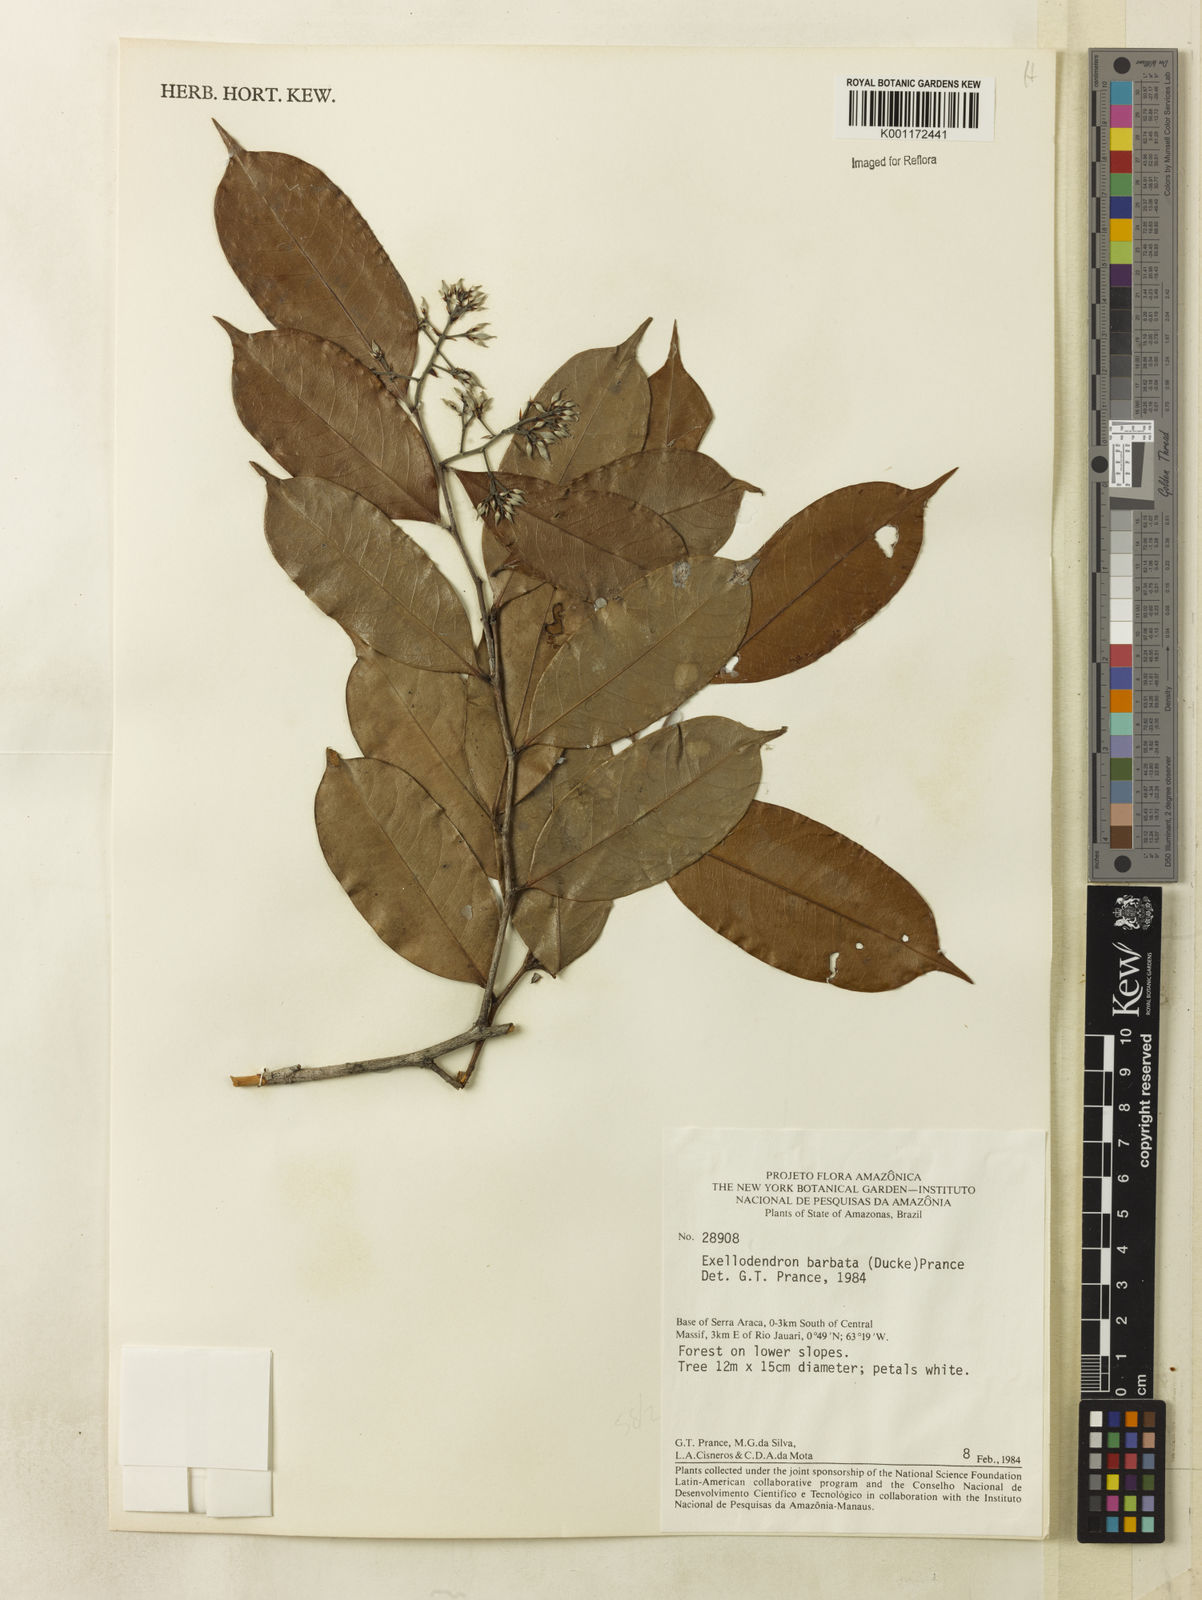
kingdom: Plantae
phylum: Tracheophyta
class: Magnoliopsida
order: Malpighiales
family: Chrysobalanaceae
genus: Atuna
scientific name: Atuna
